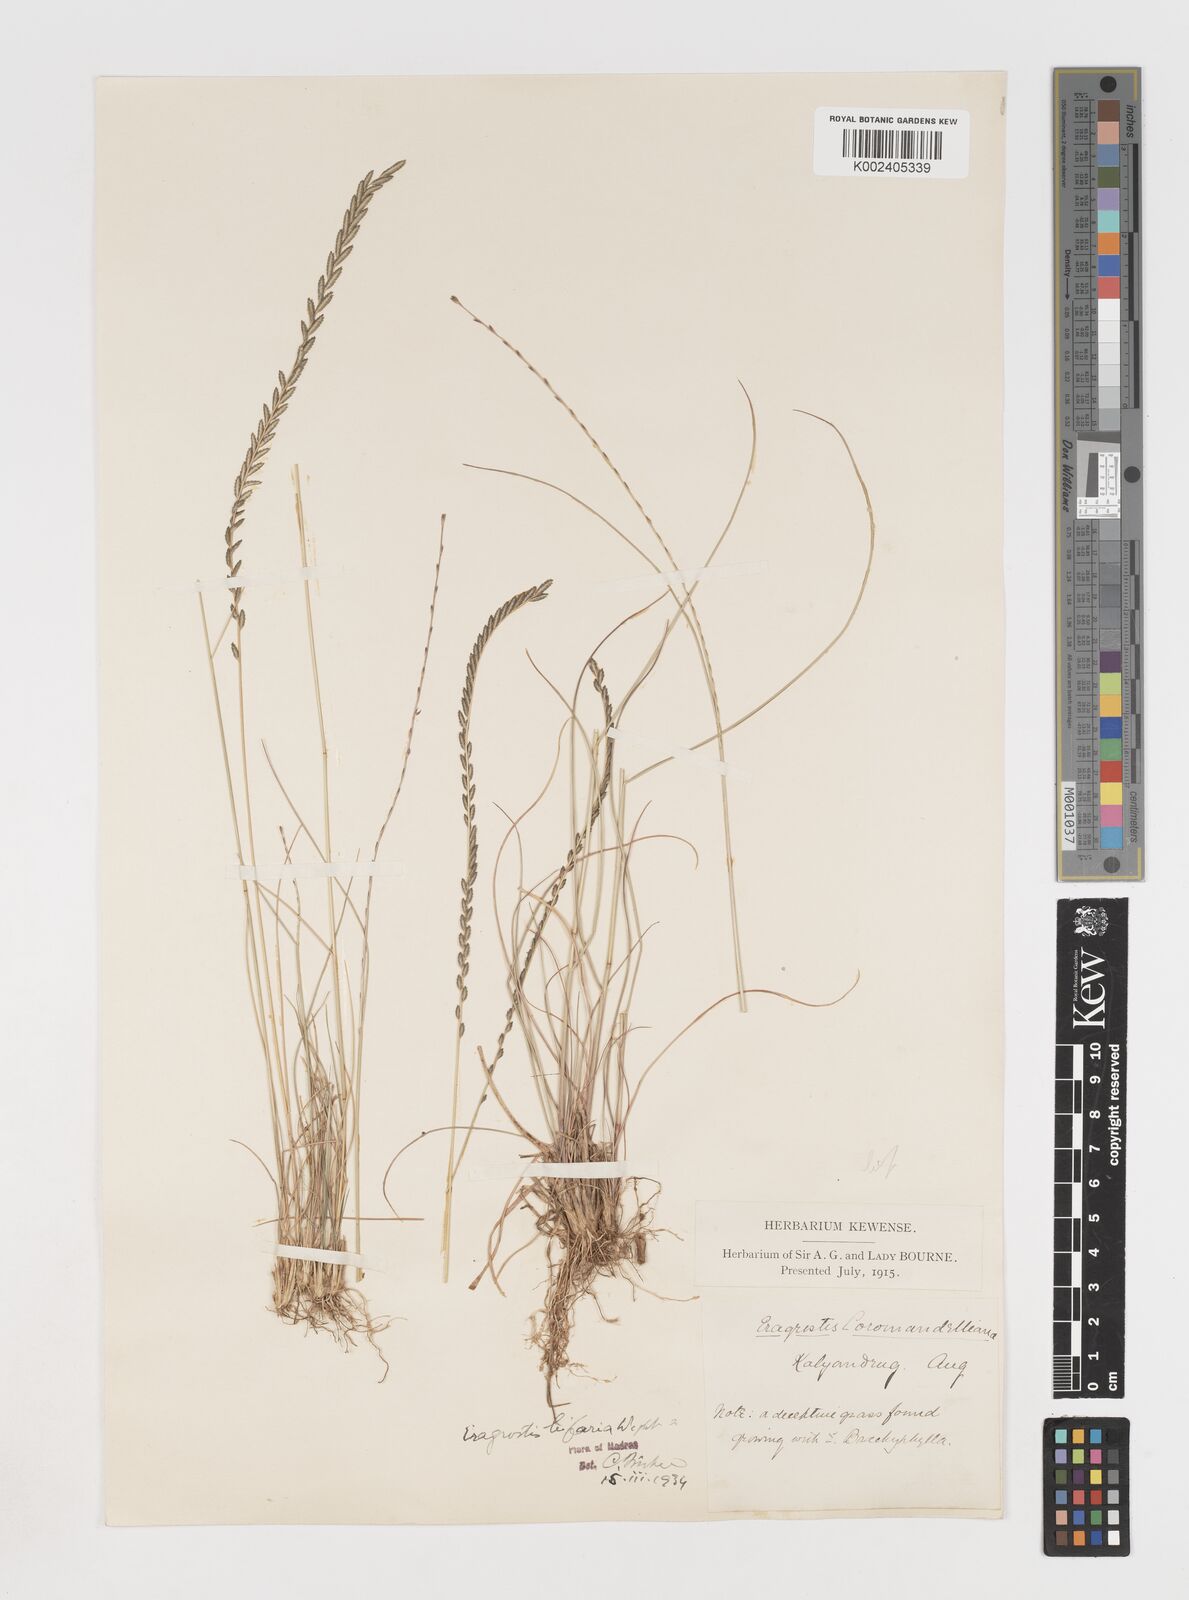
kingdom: Plantae
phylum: Tracheophyta
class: Liliopsida
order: Poales
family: Poaceae
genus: Eragrostiella
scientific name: Eragrostiella bifaria
